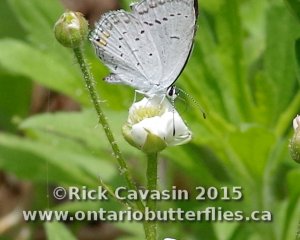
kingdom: Animalia
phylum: Arthropoda
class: Insecta
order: Lepidoptera
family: Lycaenidae
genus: Elkalyce
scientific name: Elkalyce comyntas
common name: Eastern Tailed-Blue
